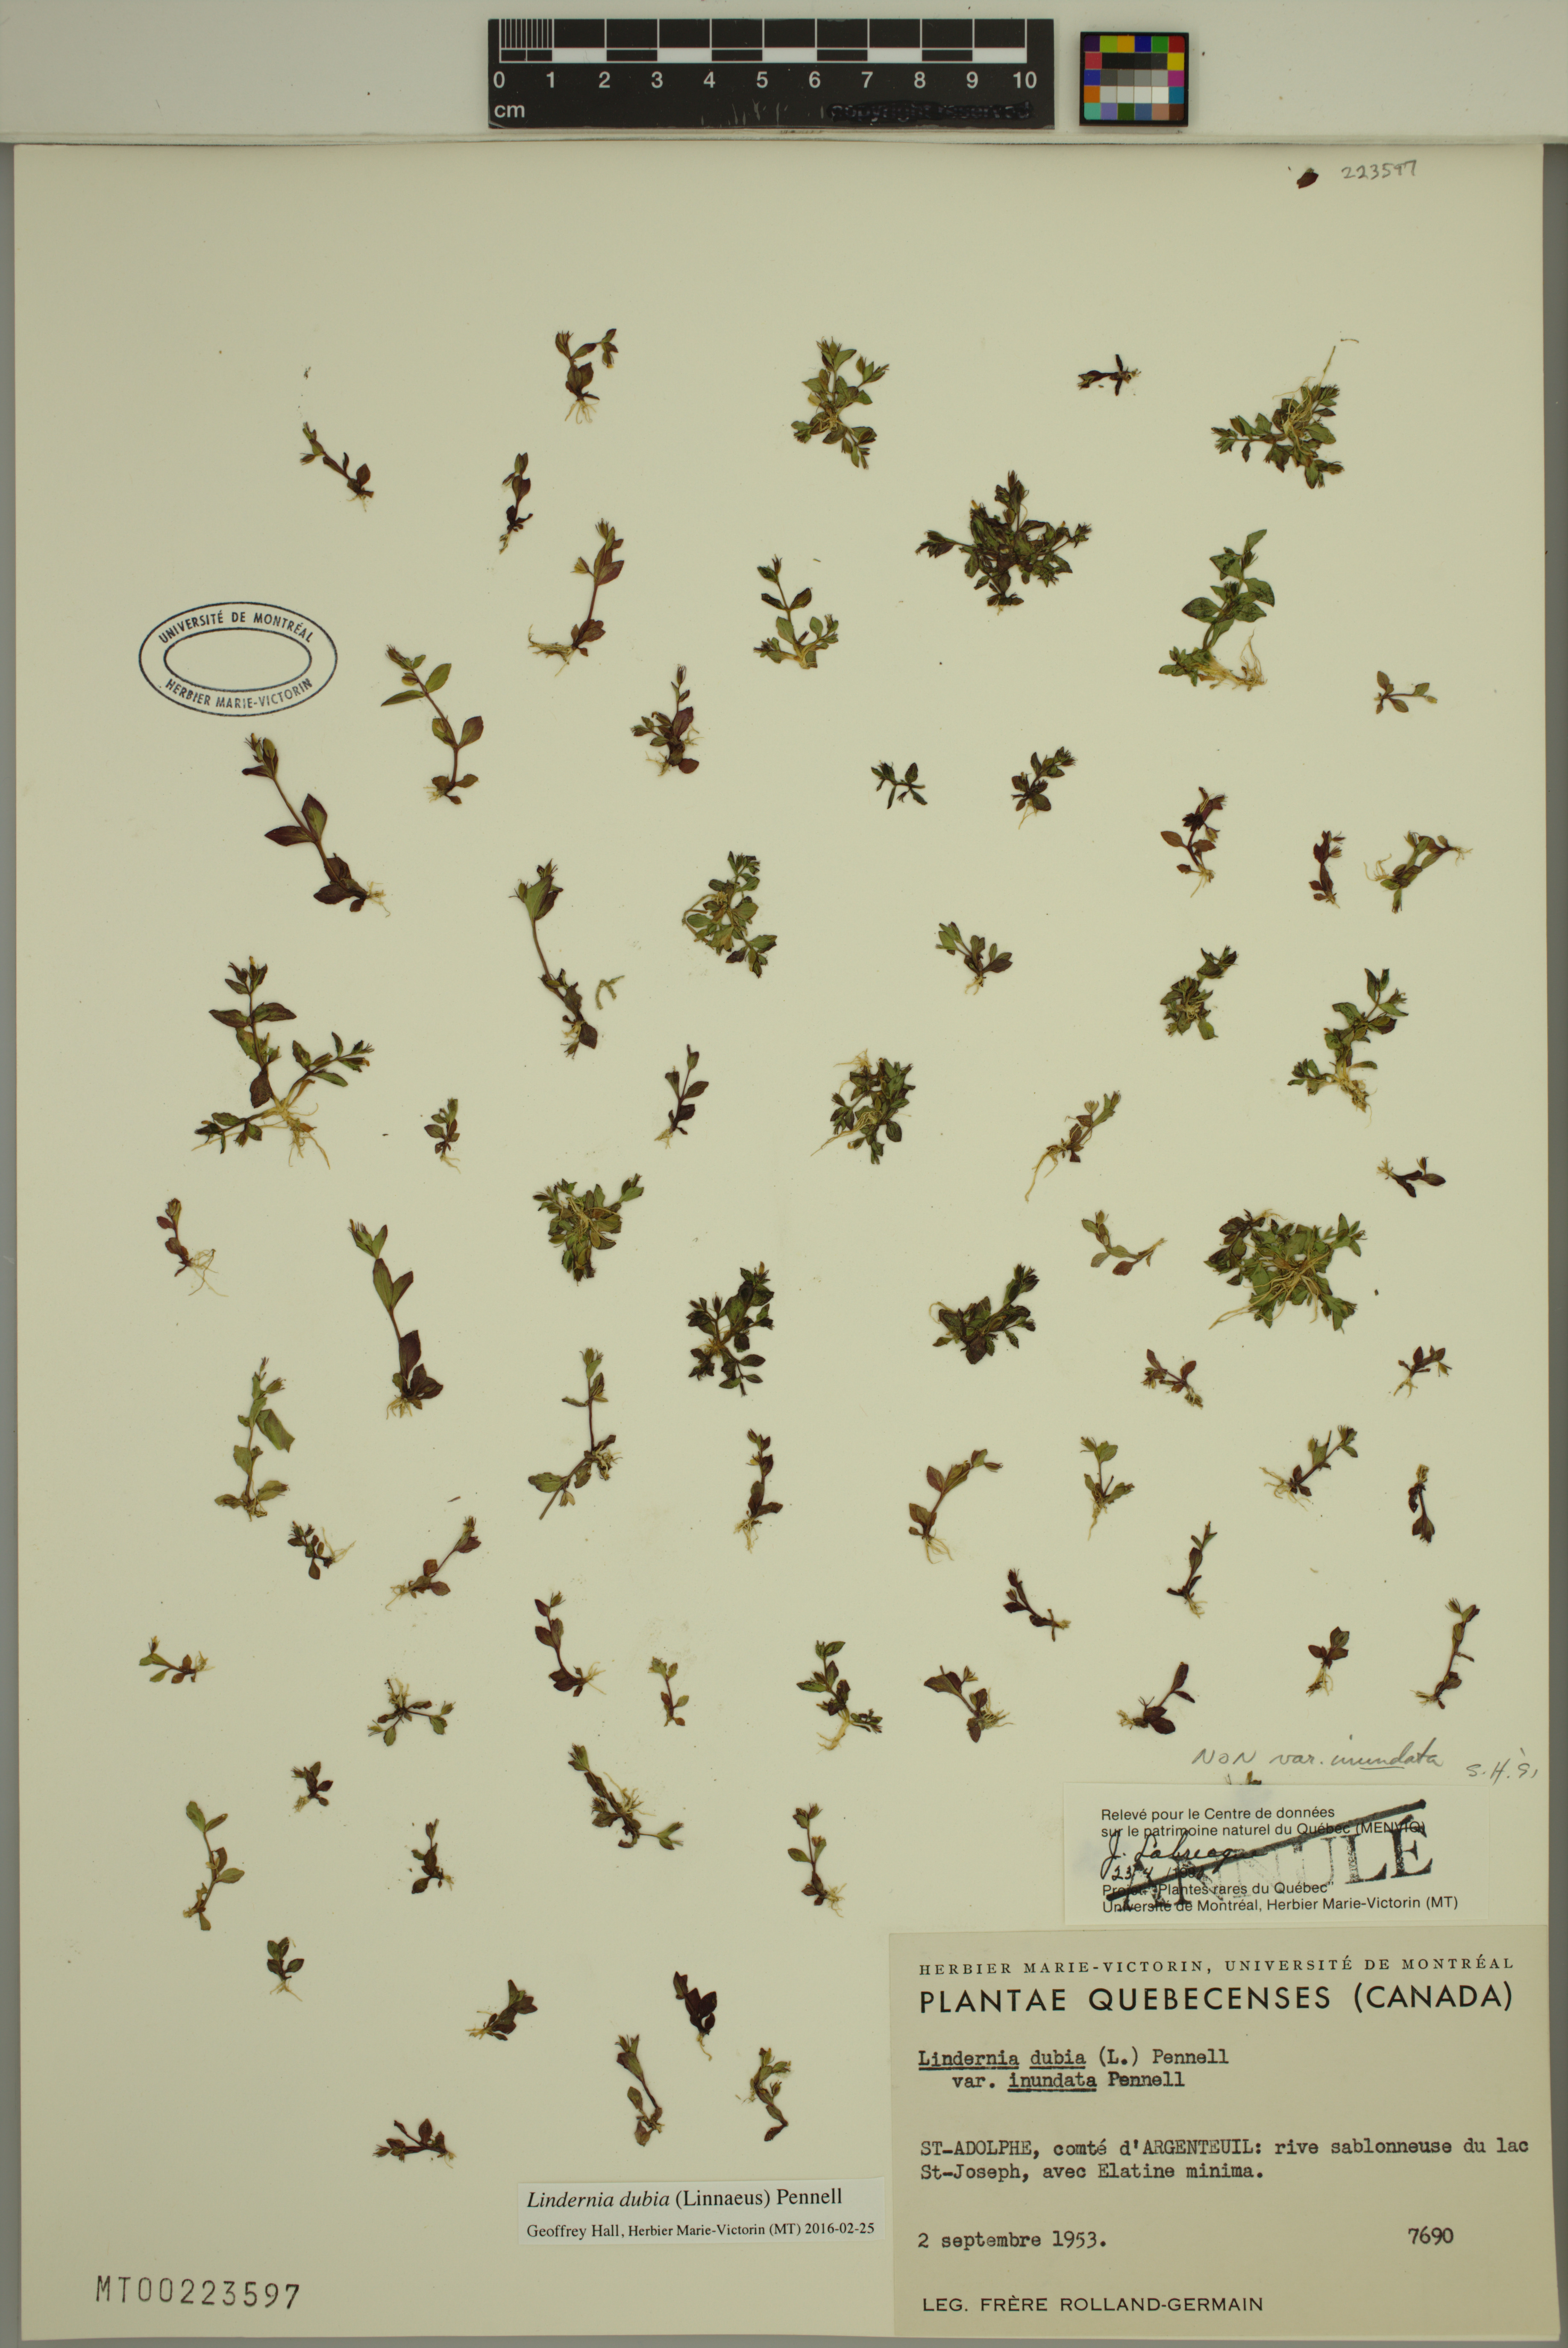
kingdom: Plantae
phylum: Tracheophyta
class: Magnoliopsida
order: Lamiales
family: Linderniaceae
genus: Lindernia
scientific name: Lindernia dubia
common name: Annual false pimpernel
